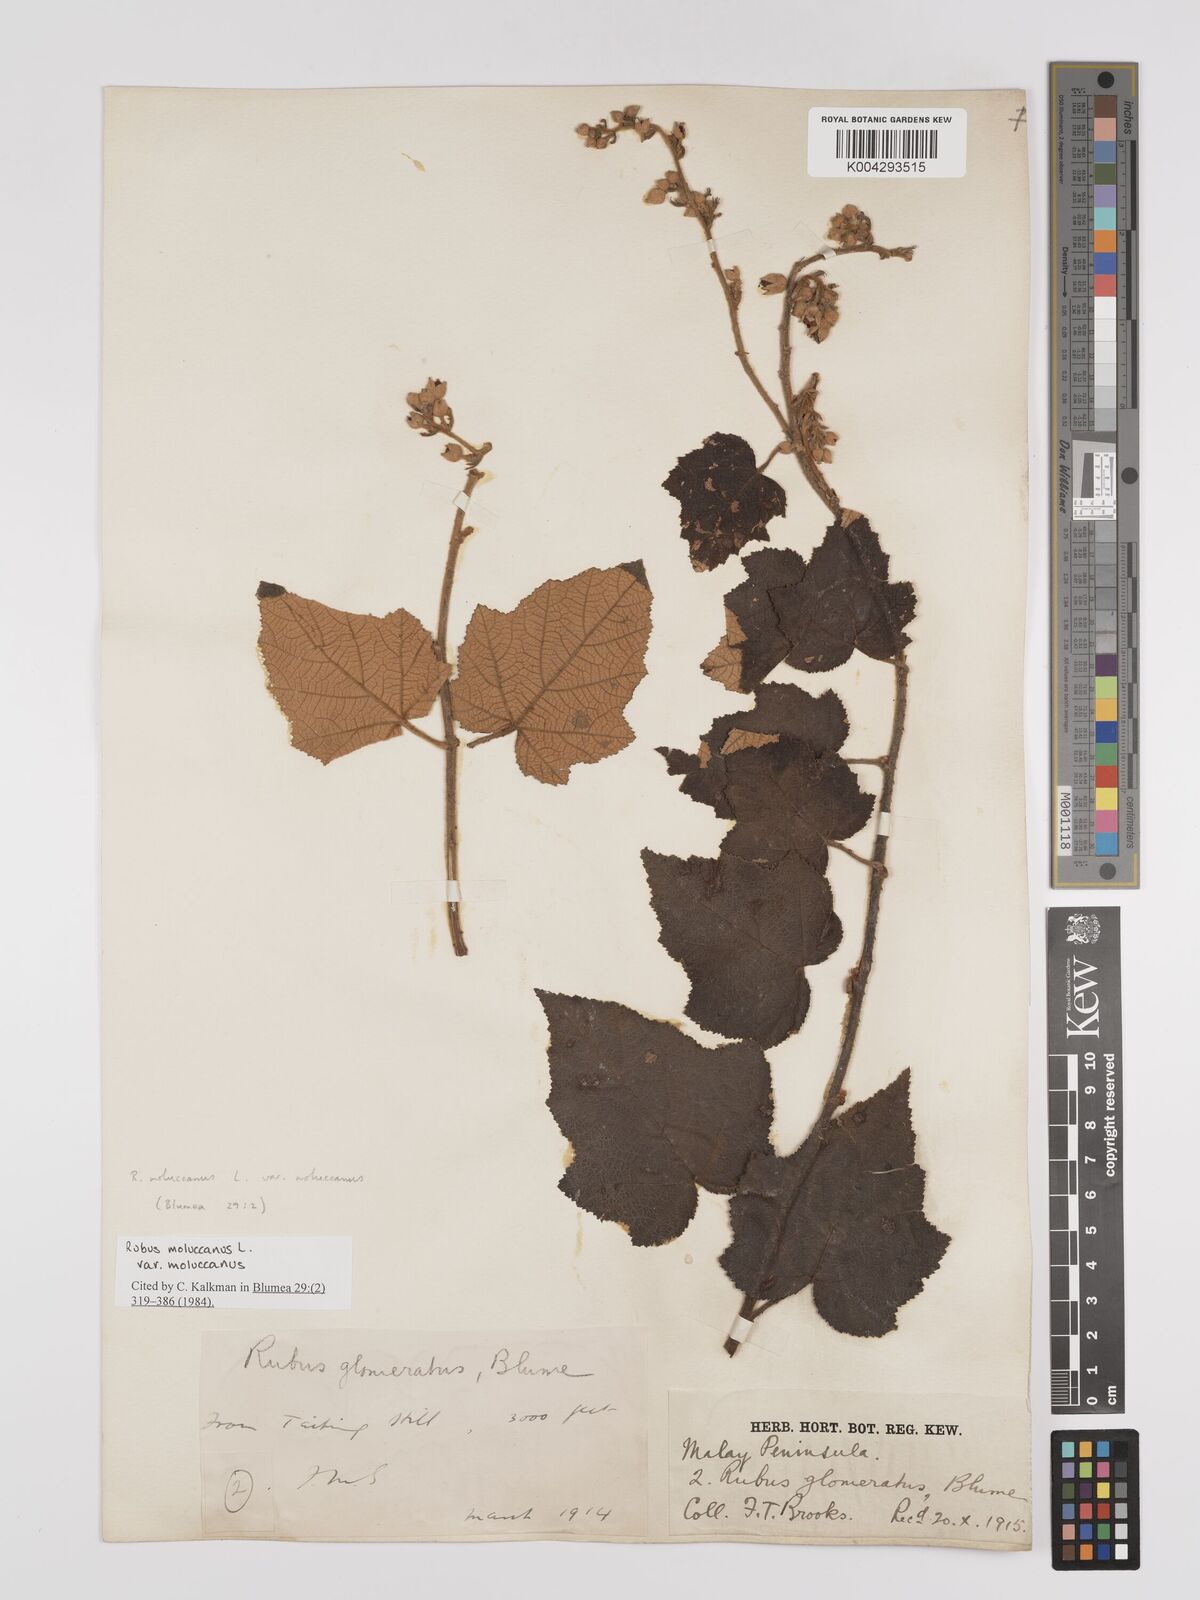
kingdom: Plantae
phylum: Tracheophyta
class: Magnoliopsida
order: Rosales
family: Rosaceae
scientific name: Rosaceae
